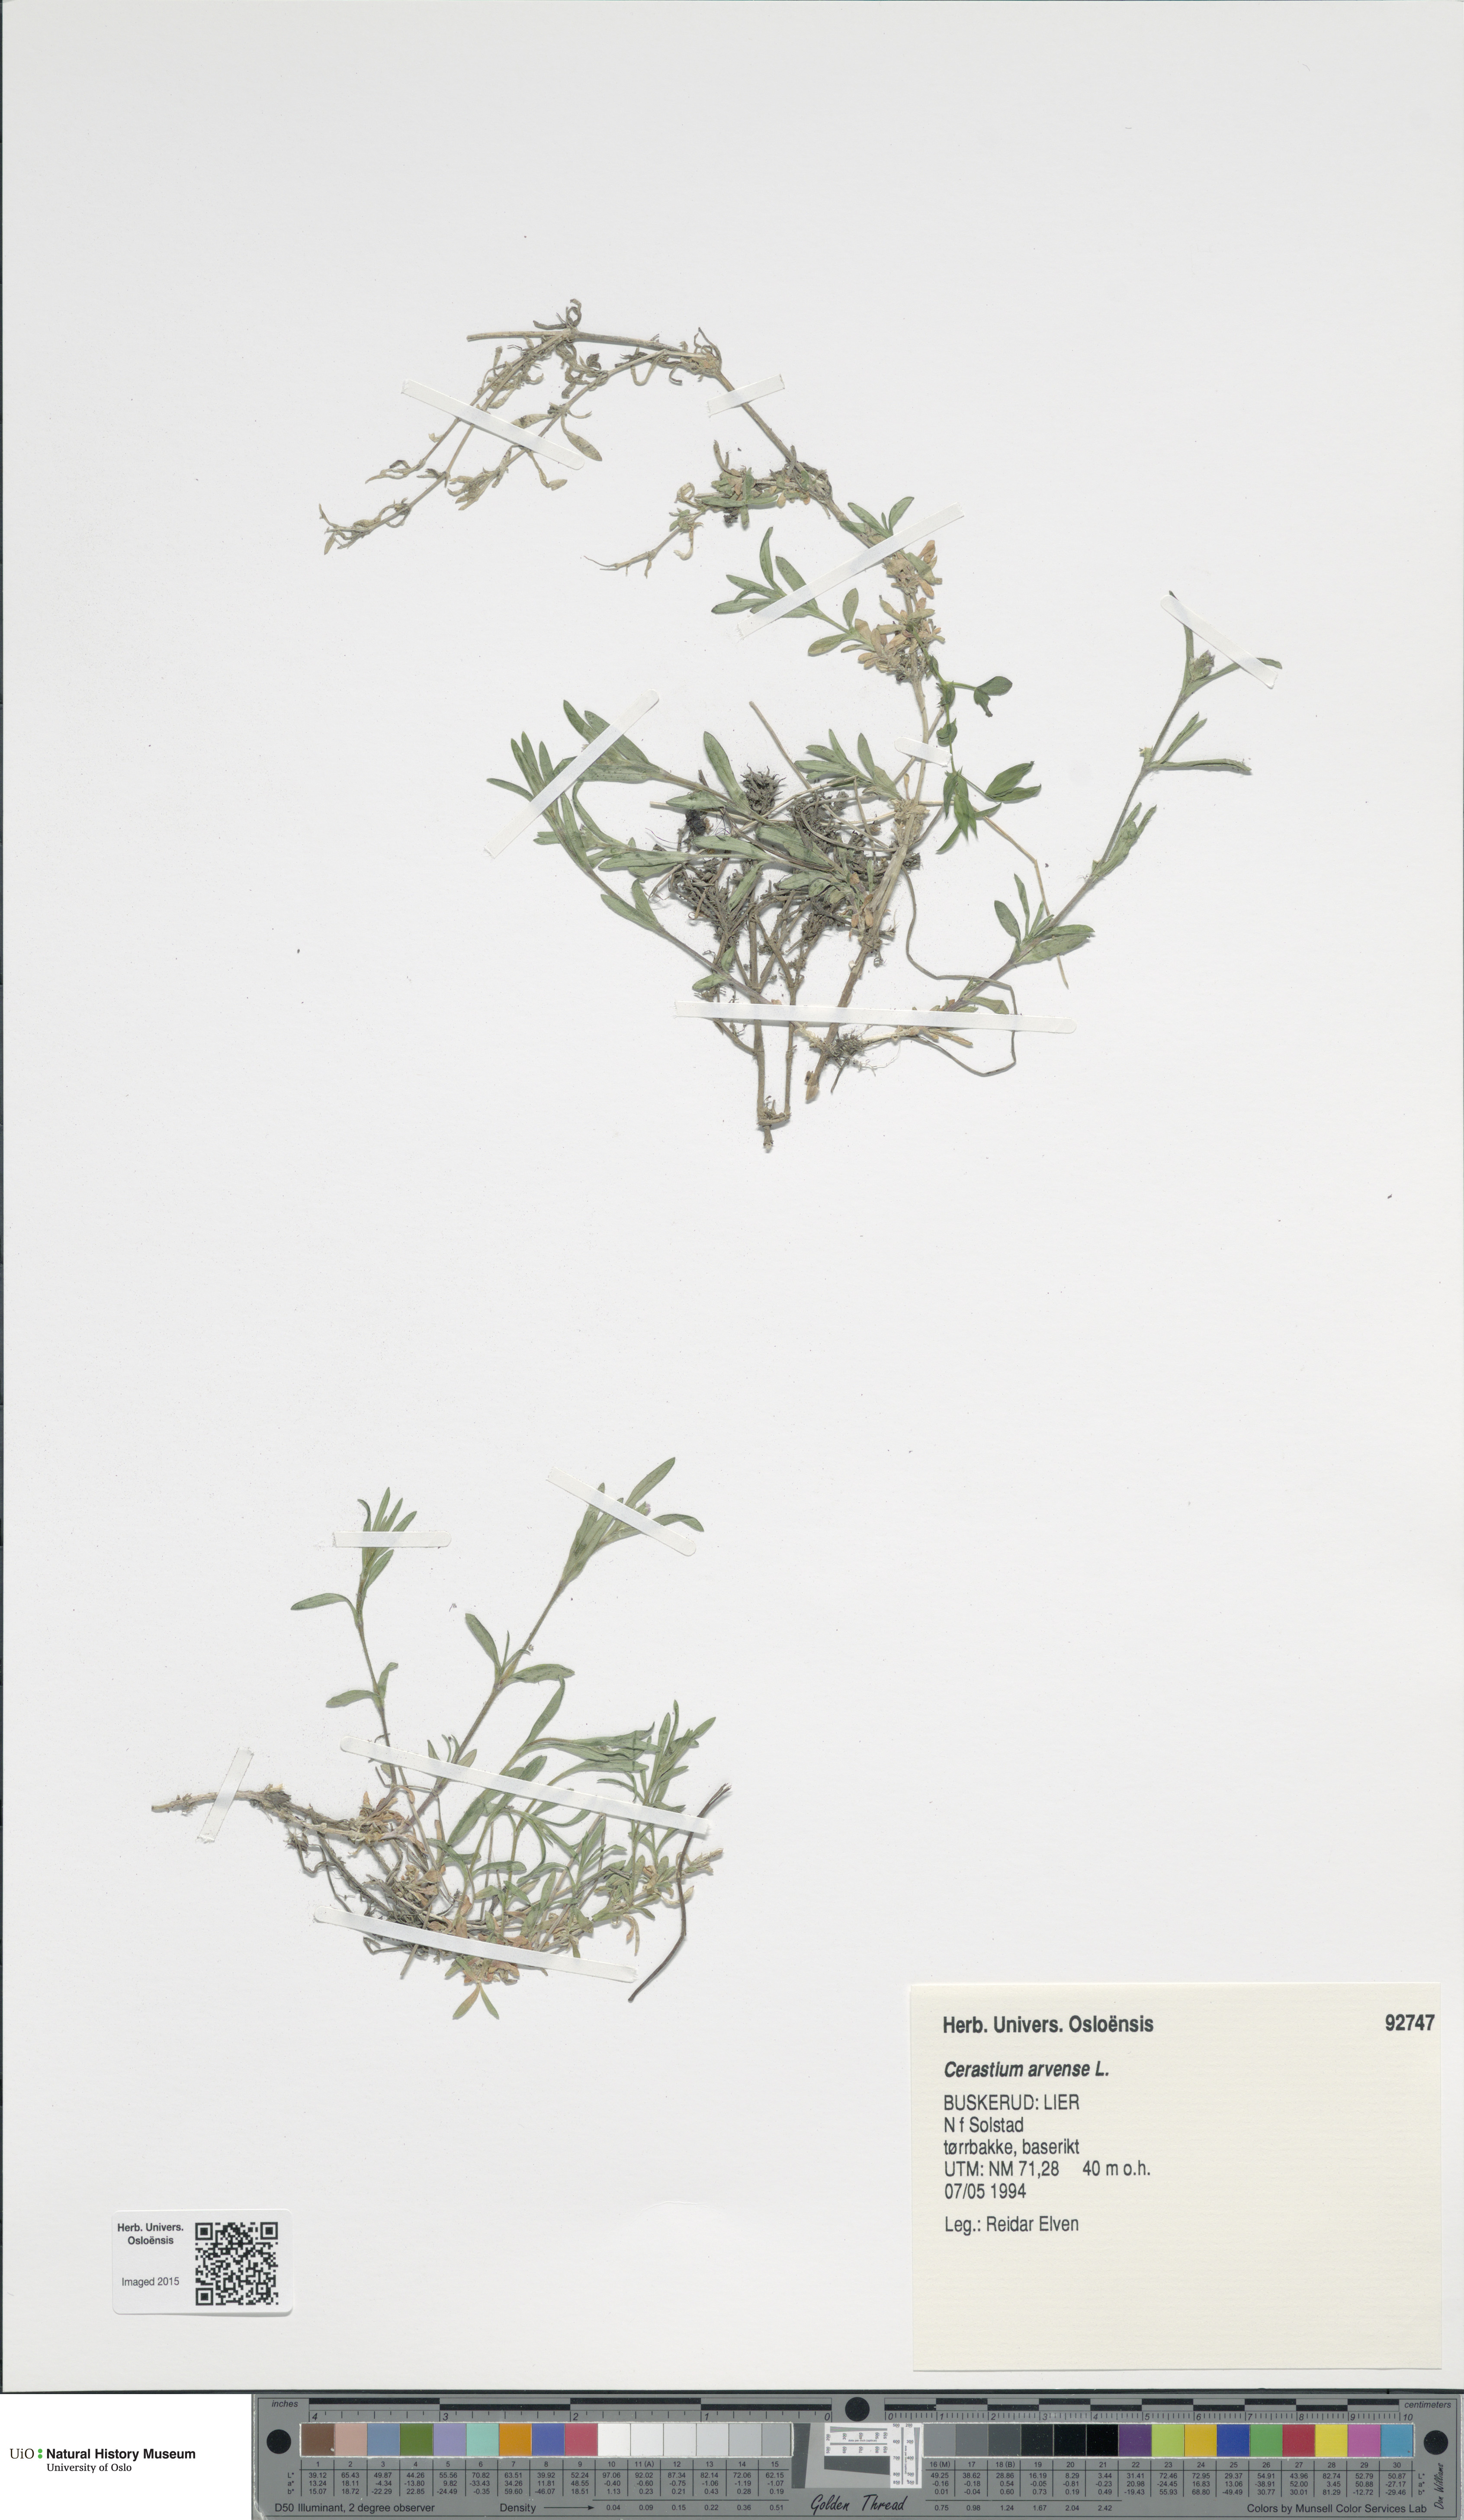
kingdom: Plantae
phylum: Tracheophyta
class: Magnoliopsida
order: Caryophyllales
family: Caryophyllaceae
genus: Cerastium
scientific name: Cerastium arvense
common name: Field mouse-ear
